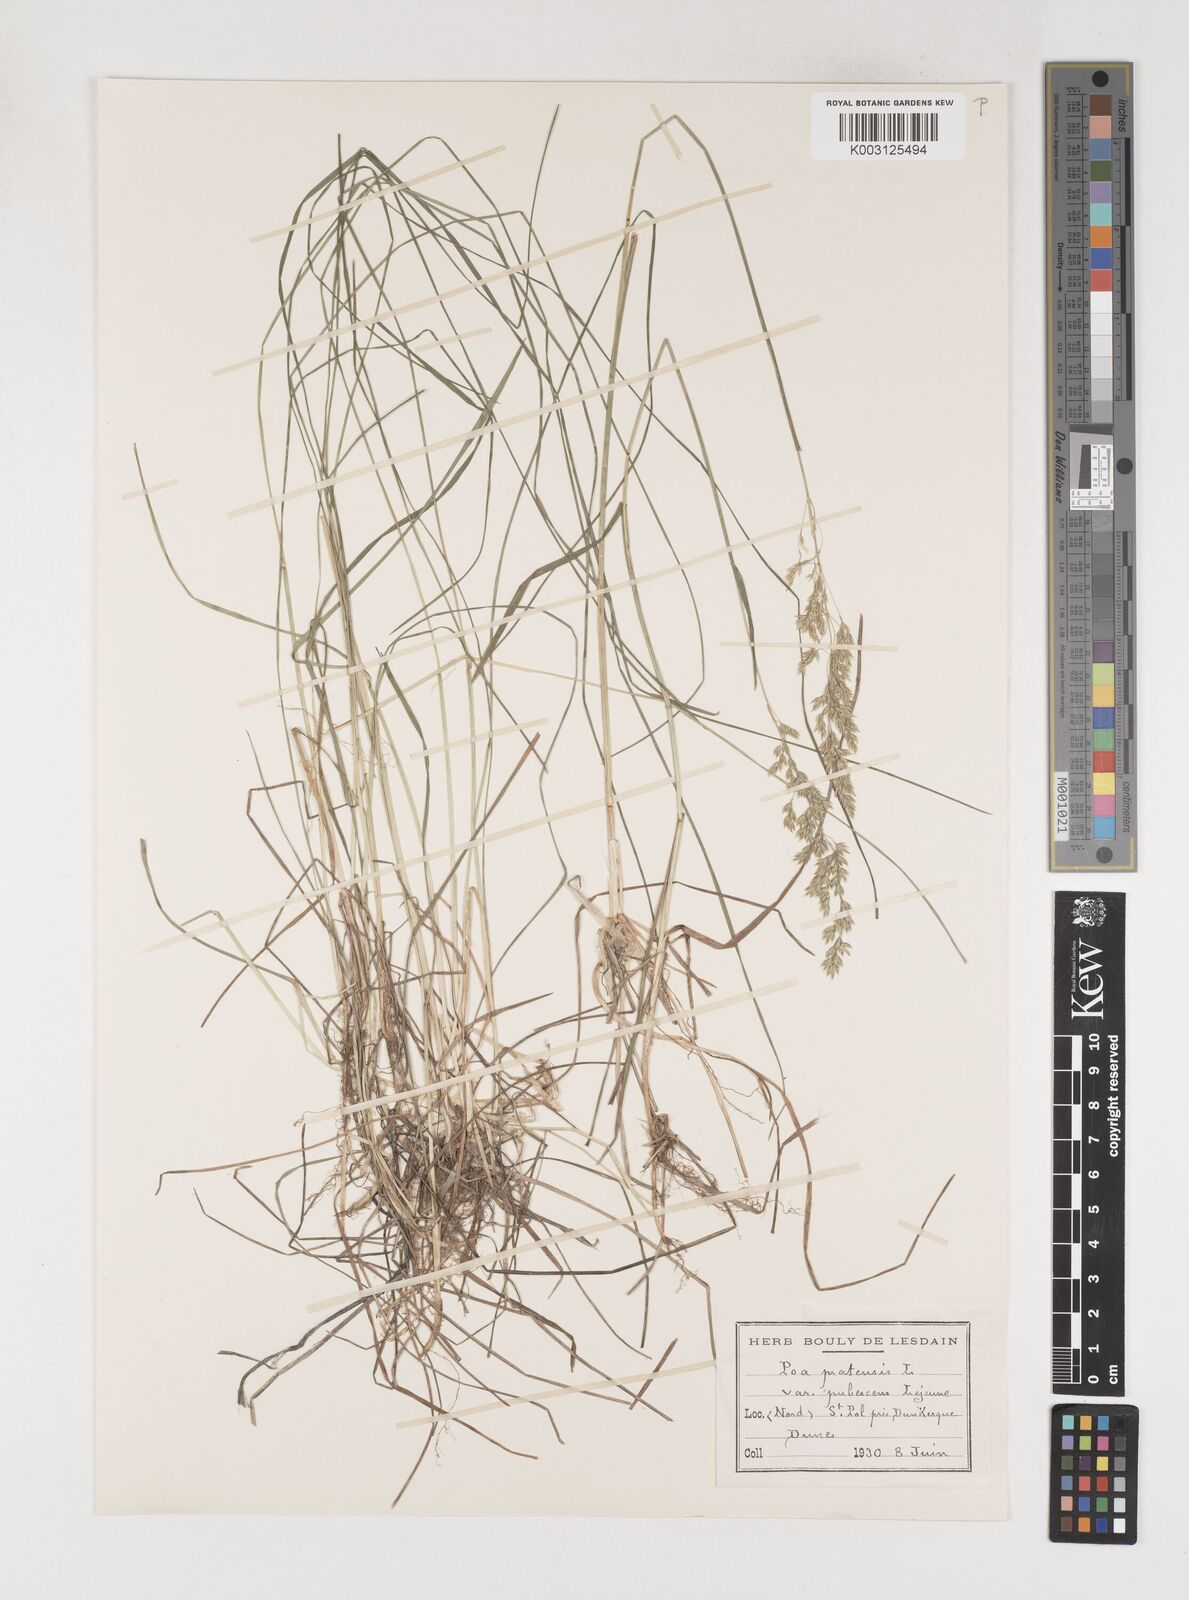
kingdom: Plantae
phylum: Tracheophyta
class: Liliopsida
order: Poales
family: Poaceae
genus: Poa
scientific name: Poa angustifolia
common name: Narrow-leaved meadow-grass
